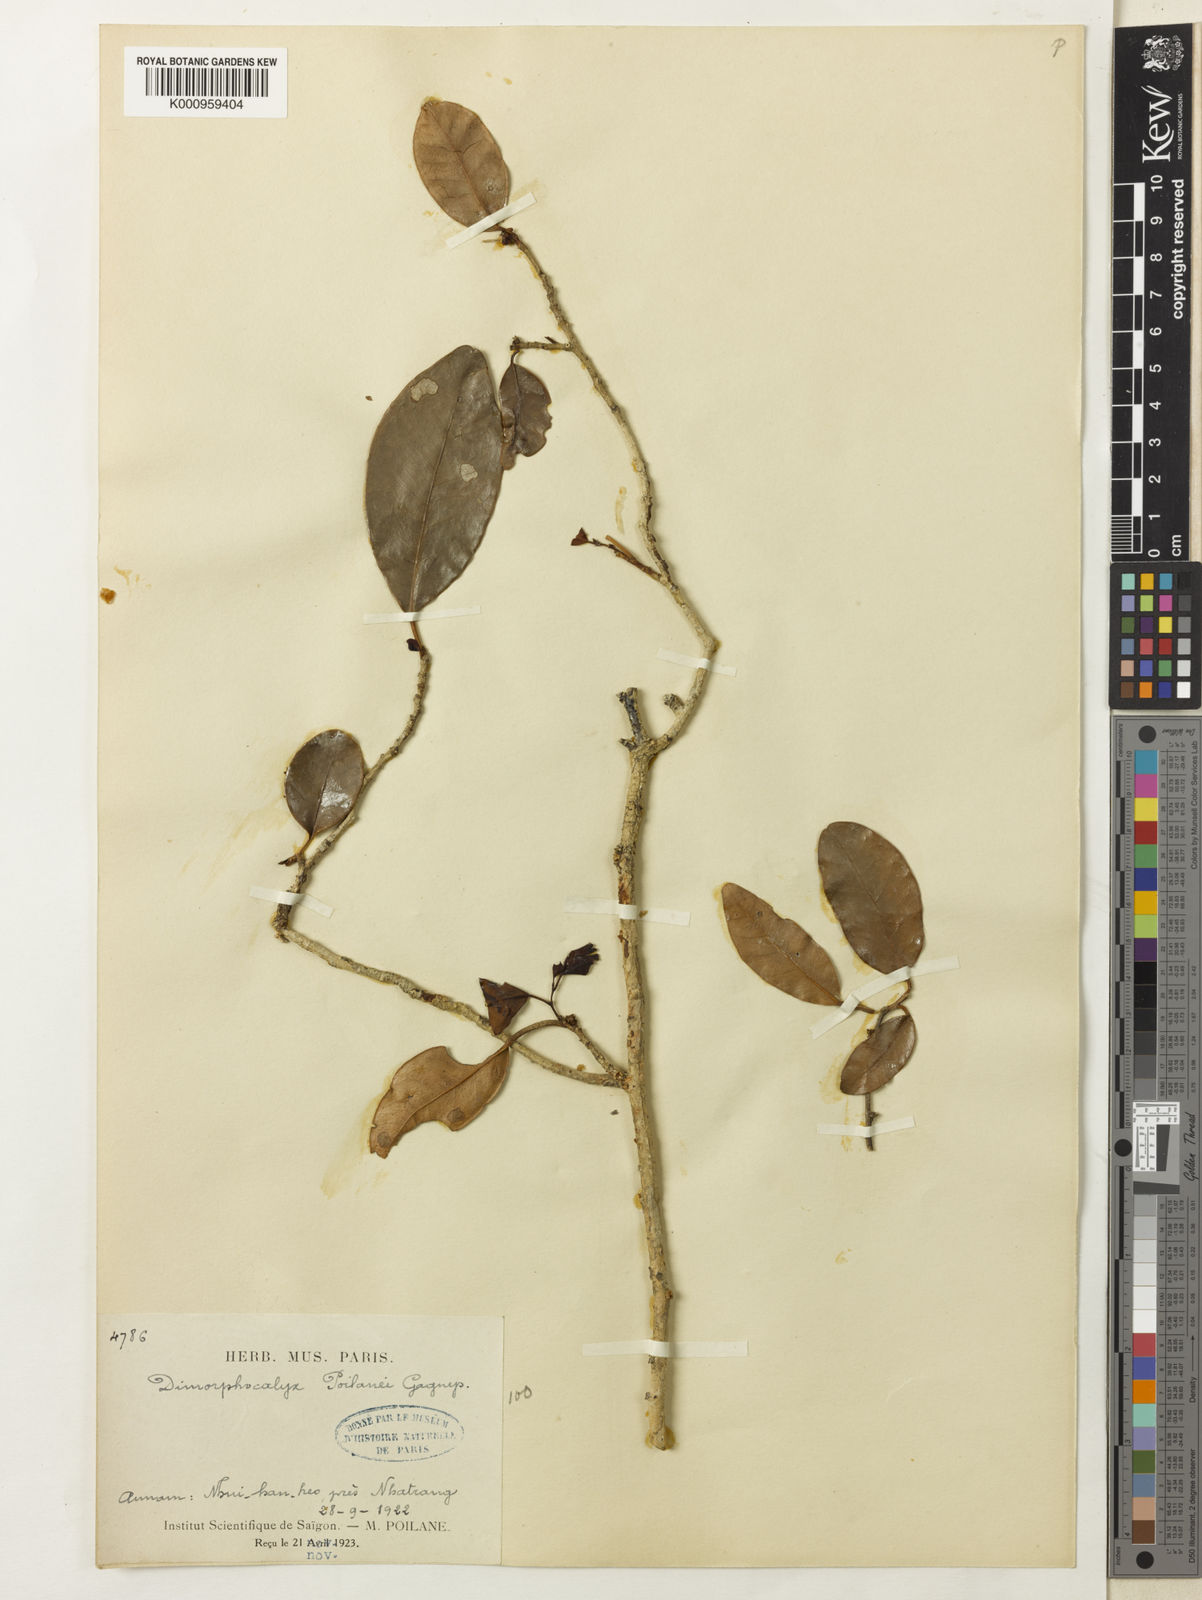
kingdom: Plantae
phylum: Tracheophyta
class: Magnoliopsida
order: Malpighiales
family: Euphorbiaceae
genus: Tritaxis
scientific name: Tritaxis poilanei
